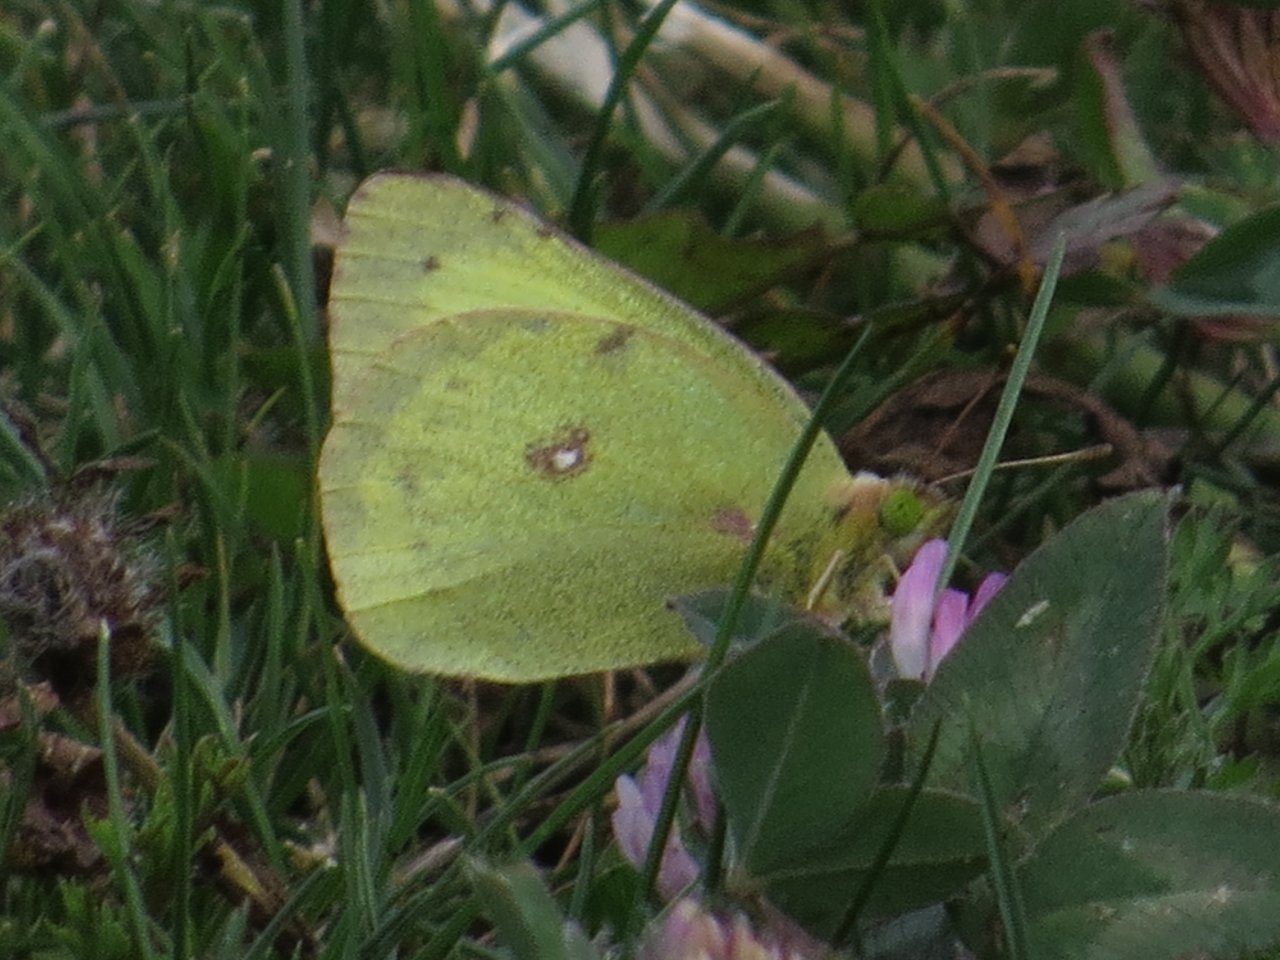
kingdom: Animalia
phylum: Arthropoda
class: Insecta
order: Lepidoptera
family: Pieridae
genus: Colias
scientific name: Colias philodice
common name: Clouded Sulphur
